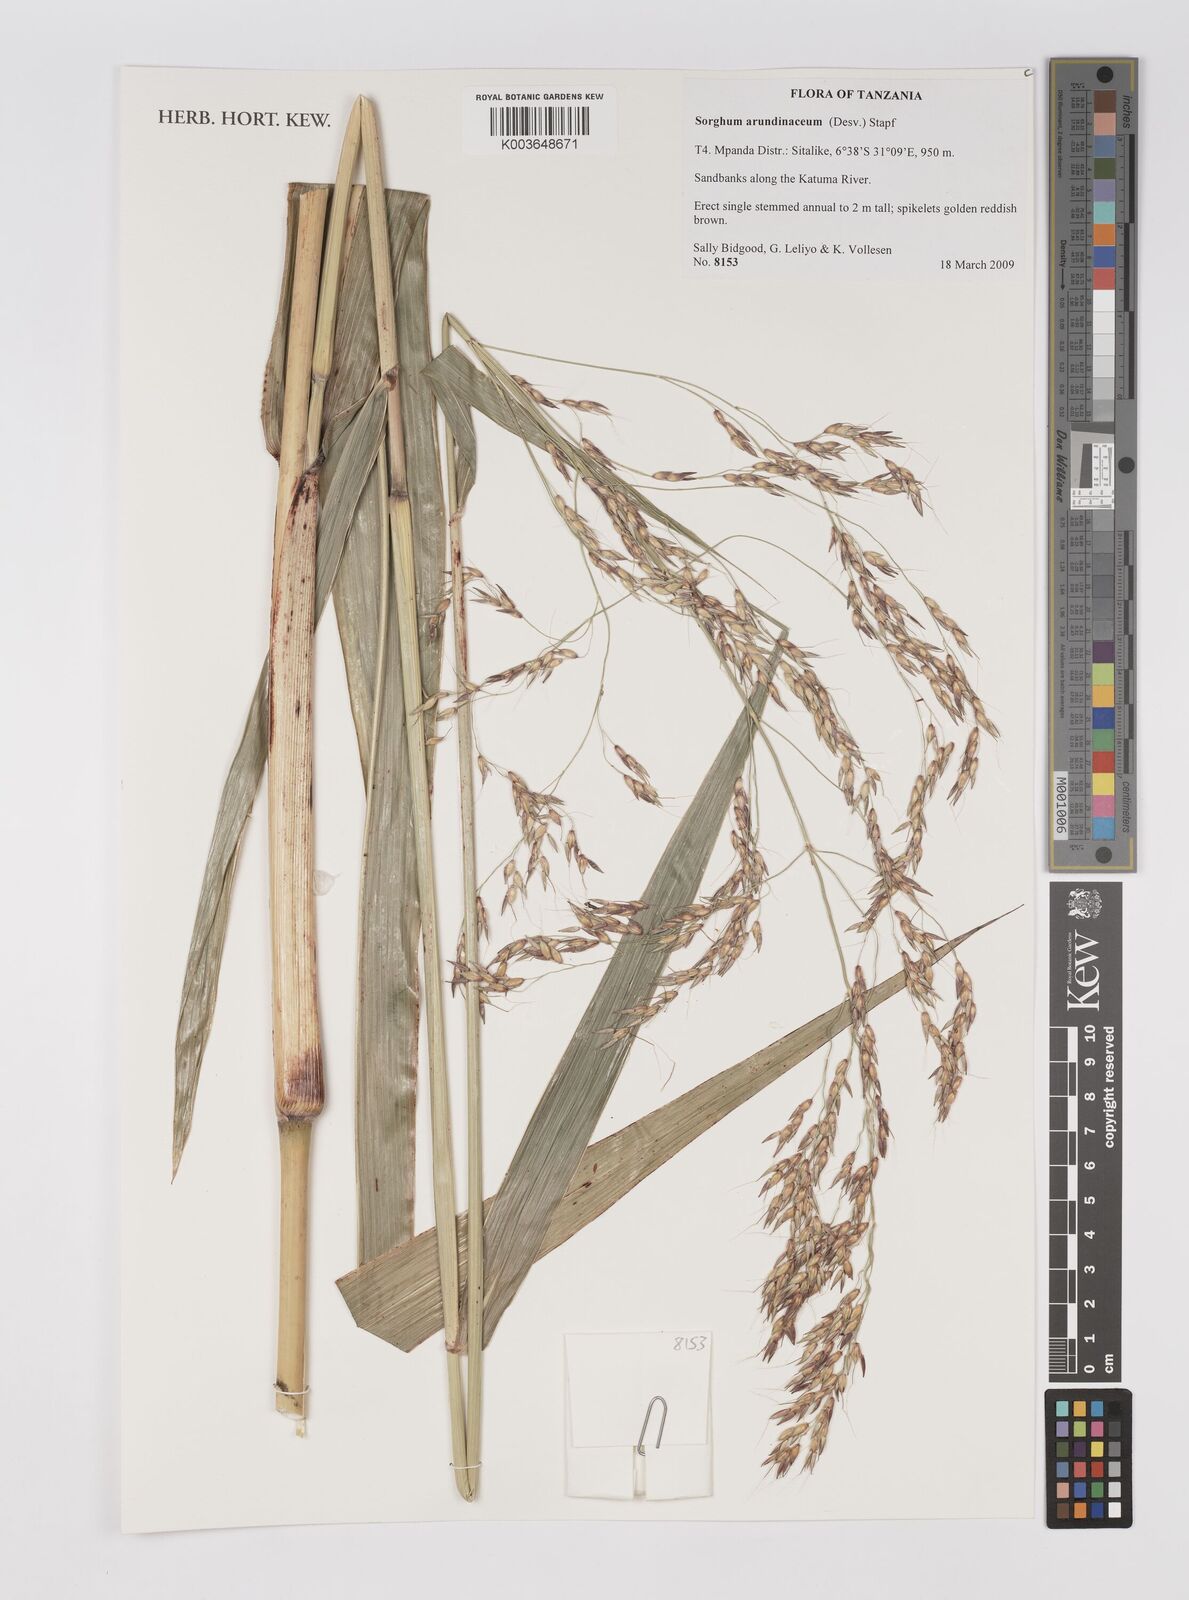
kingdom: Plantae
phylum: Tracheophyta
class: Liliopsida
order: Poales
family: Poaceae
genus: Sorghum
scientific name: Sorghum arundinaceum
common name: Sorghum
